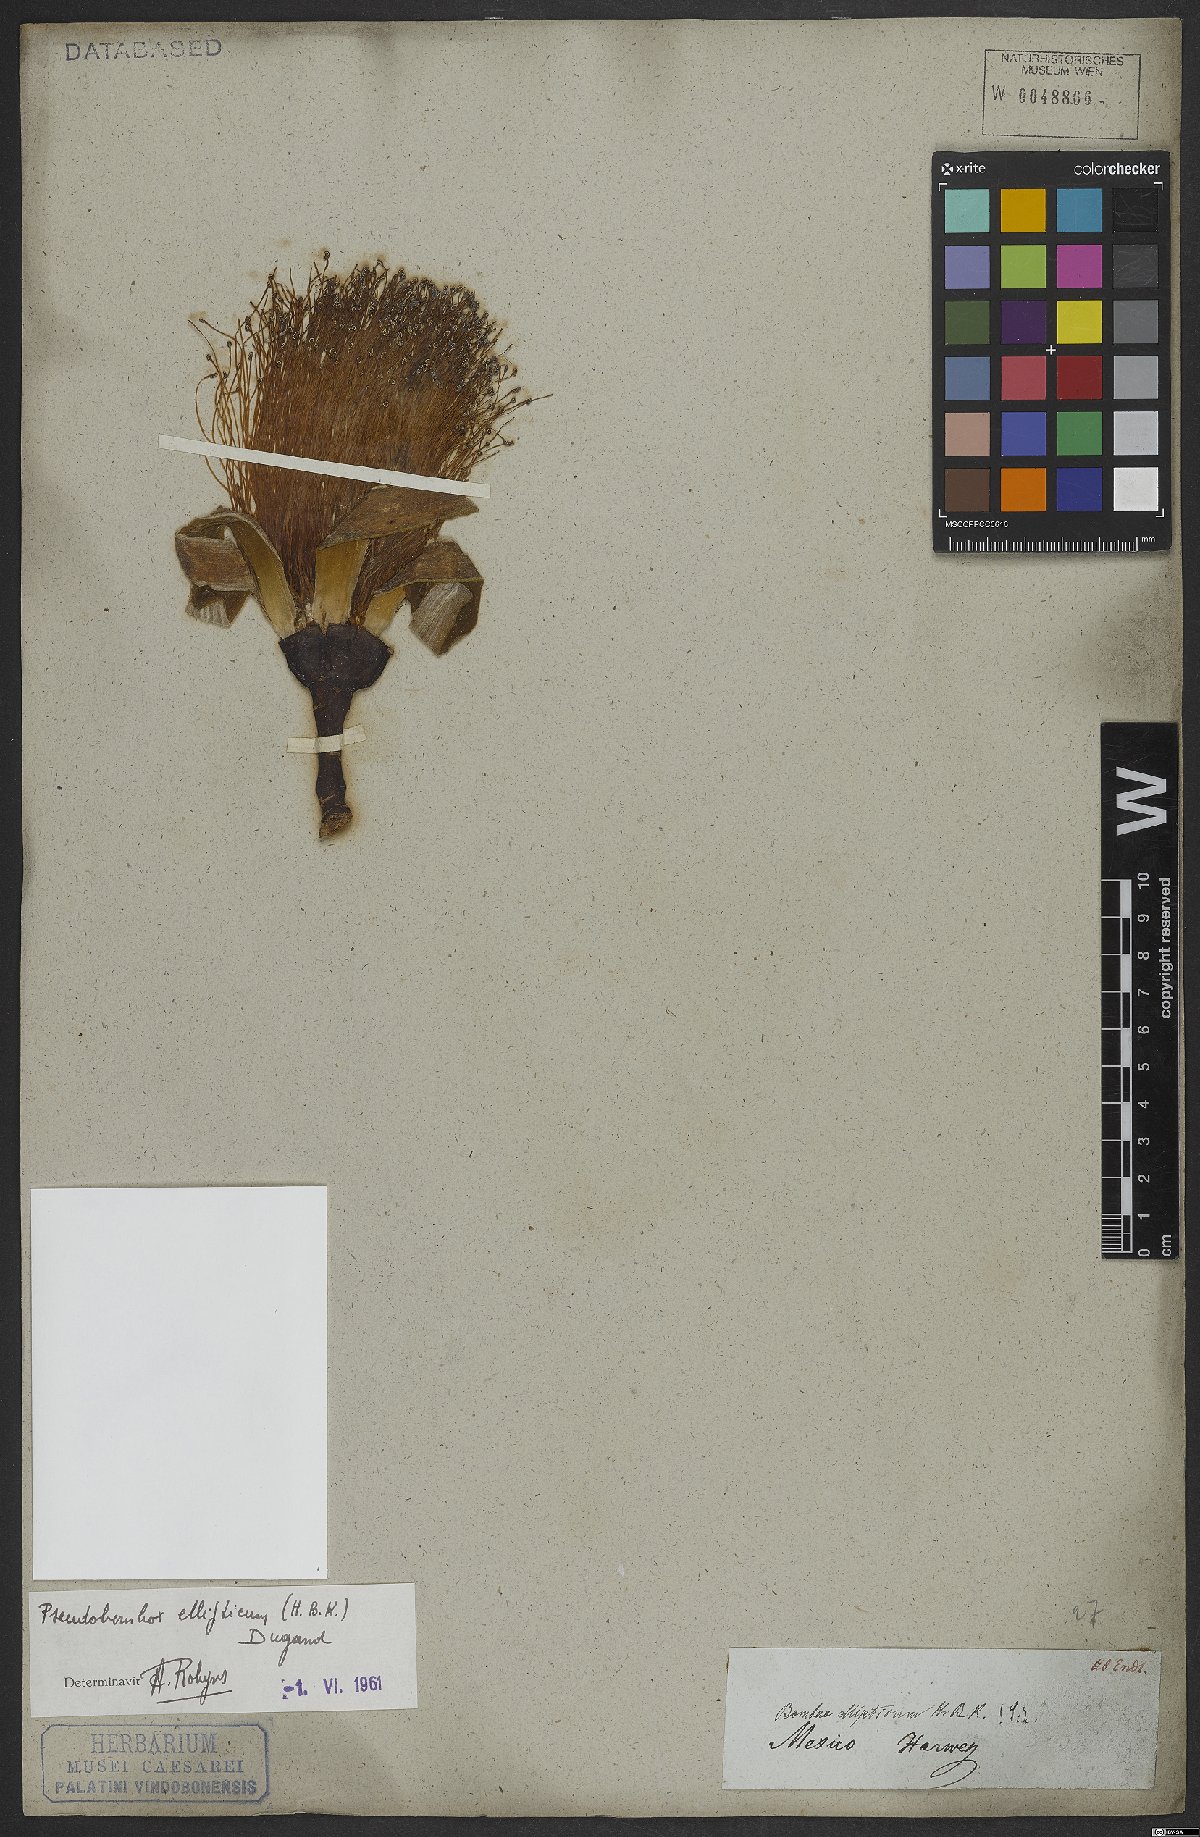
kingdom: Plantae
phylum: Tracheophyta
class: Magnoliopsida
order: Malvales
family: Malvaceae
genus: Pseudobombax
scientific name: Pseudobombax ellipticum
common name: Shaving-brush-tree
